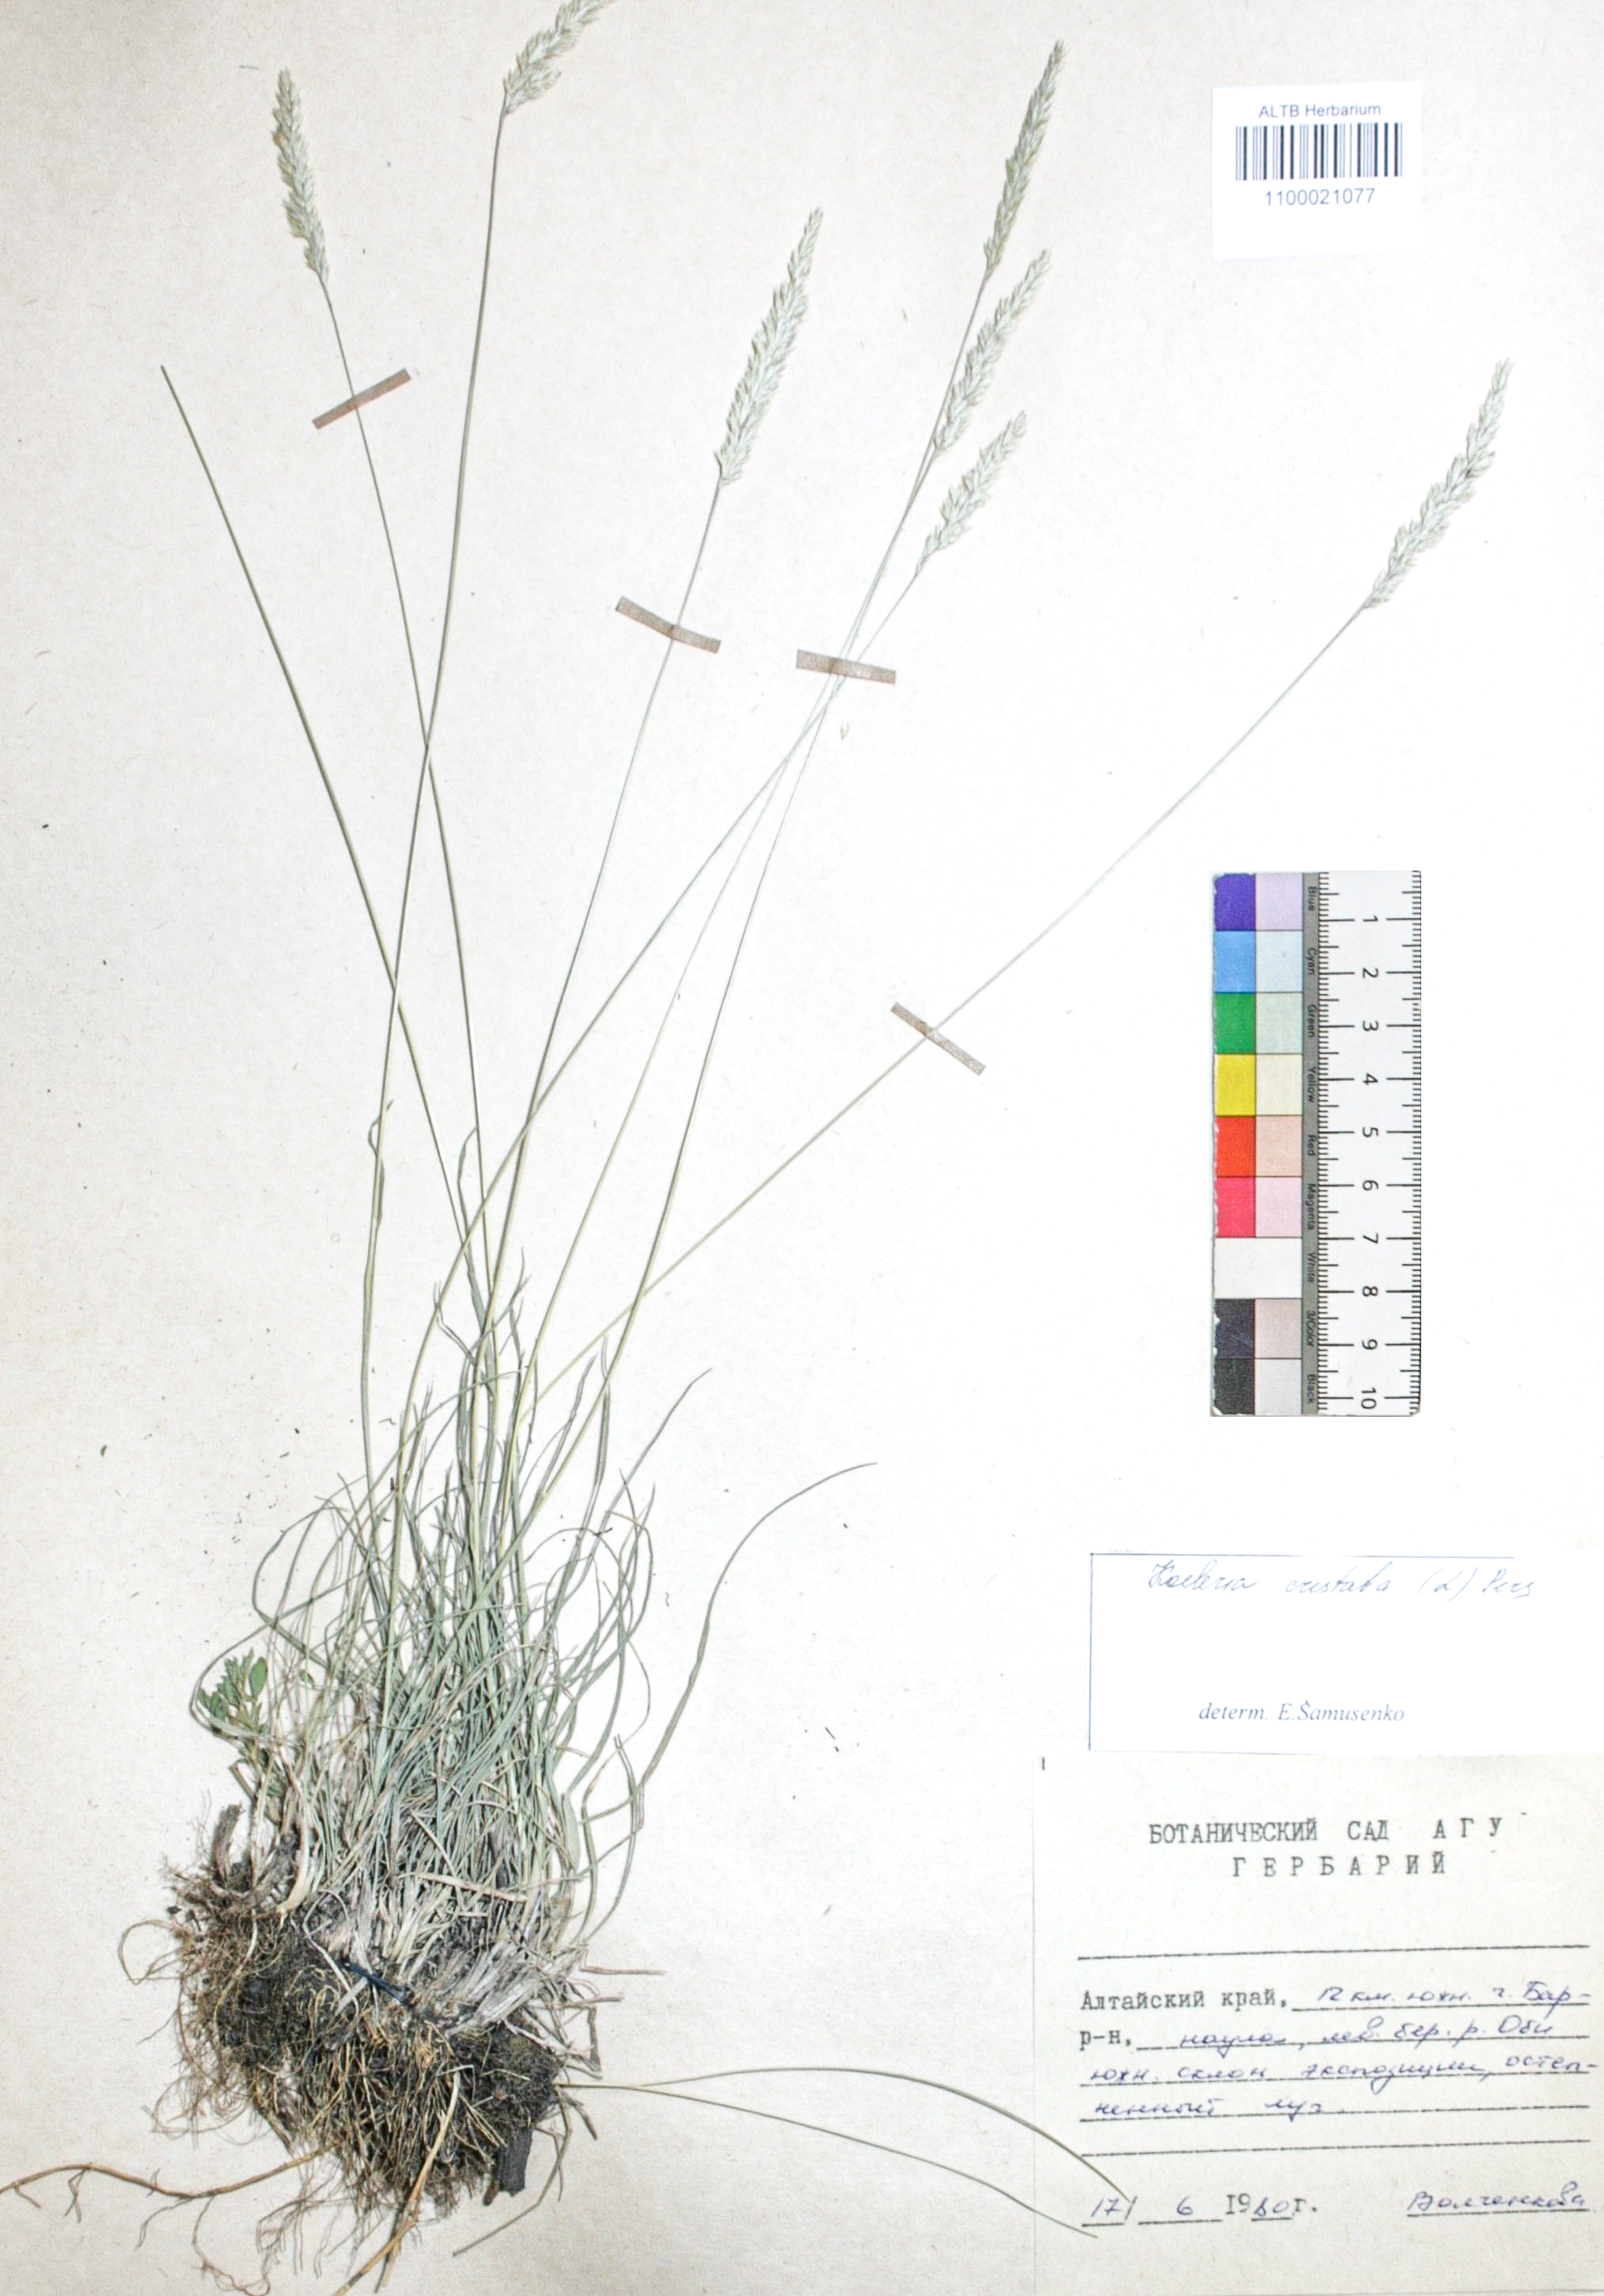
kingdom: Plantae
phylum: Tracheophyta
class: Liliopsida
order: Poales
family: Poaceae
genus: Koeleria
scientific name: Koeleria pyramidata
